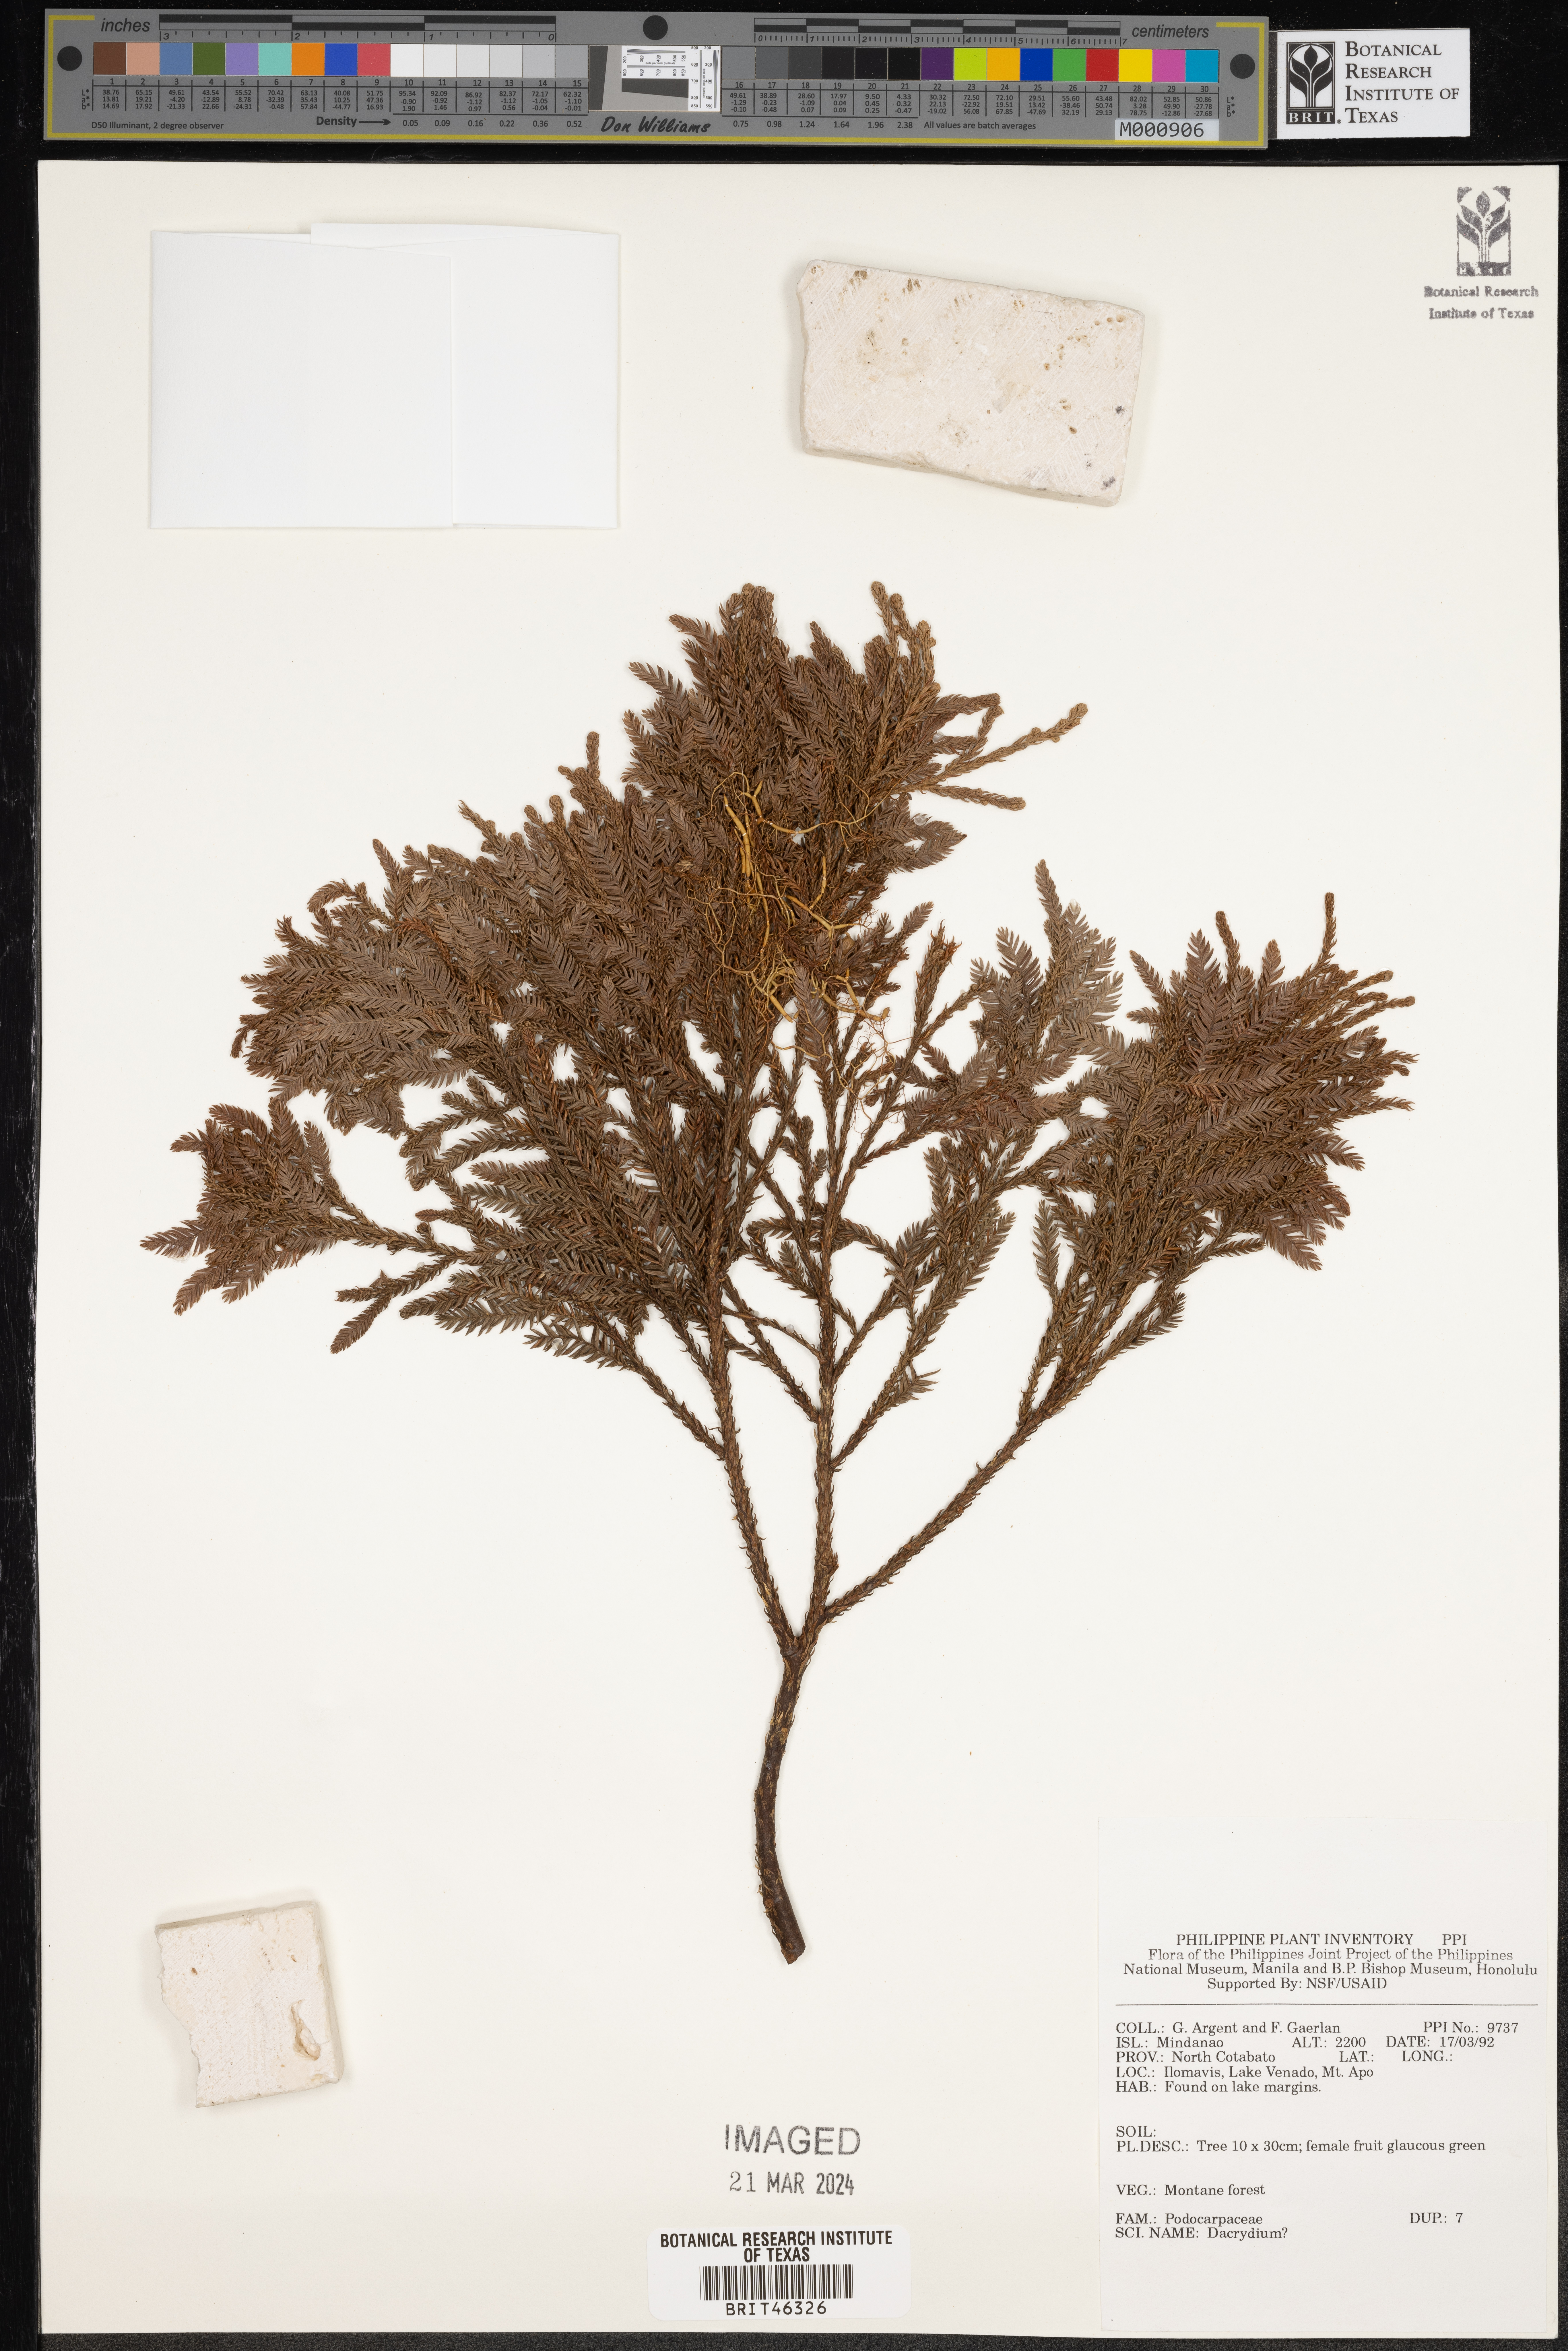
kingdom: Plantae
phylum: Tracheophyta
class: Pinopsida
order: Pinales
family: Podocarpaceae
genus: Dacrydium
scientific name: Dacrydium
